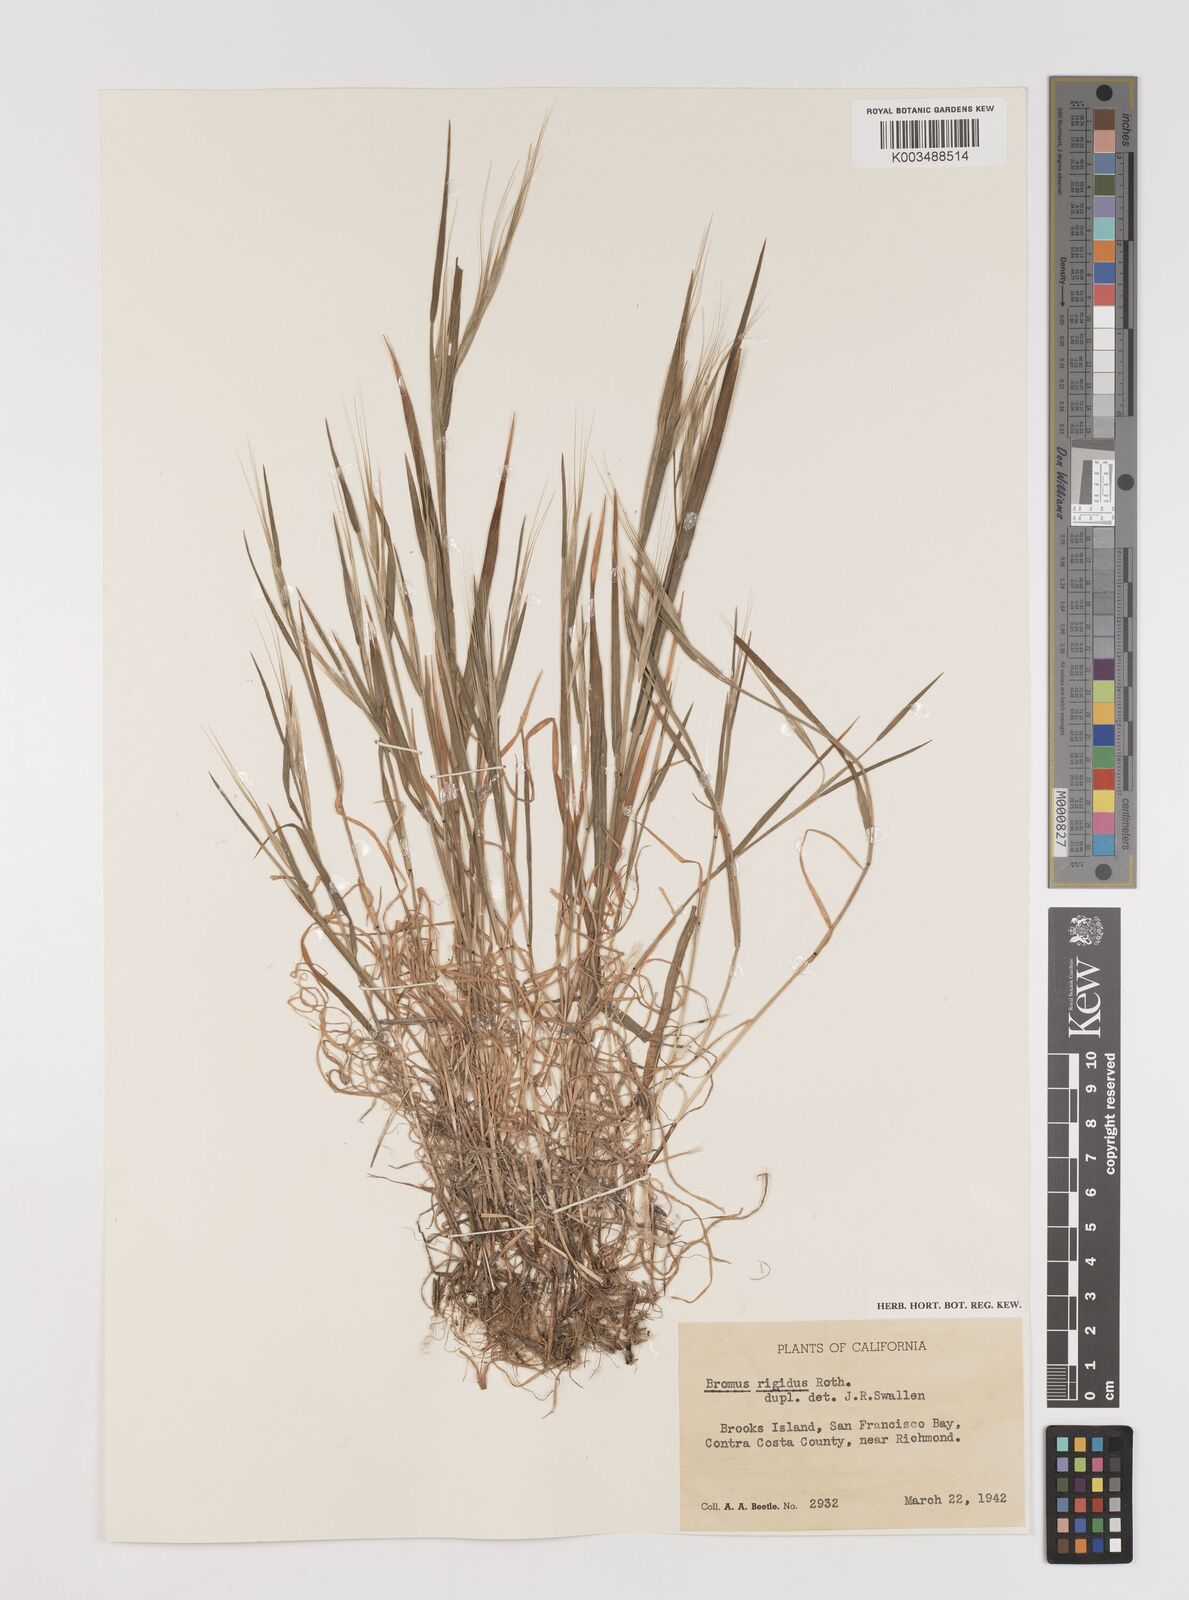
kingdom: Plantae
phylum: Tracheophyta
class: Liliopsida
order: Poales
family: Poaceae
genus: Bromus
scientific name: Bromus diandrus
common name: Ripgut brome
